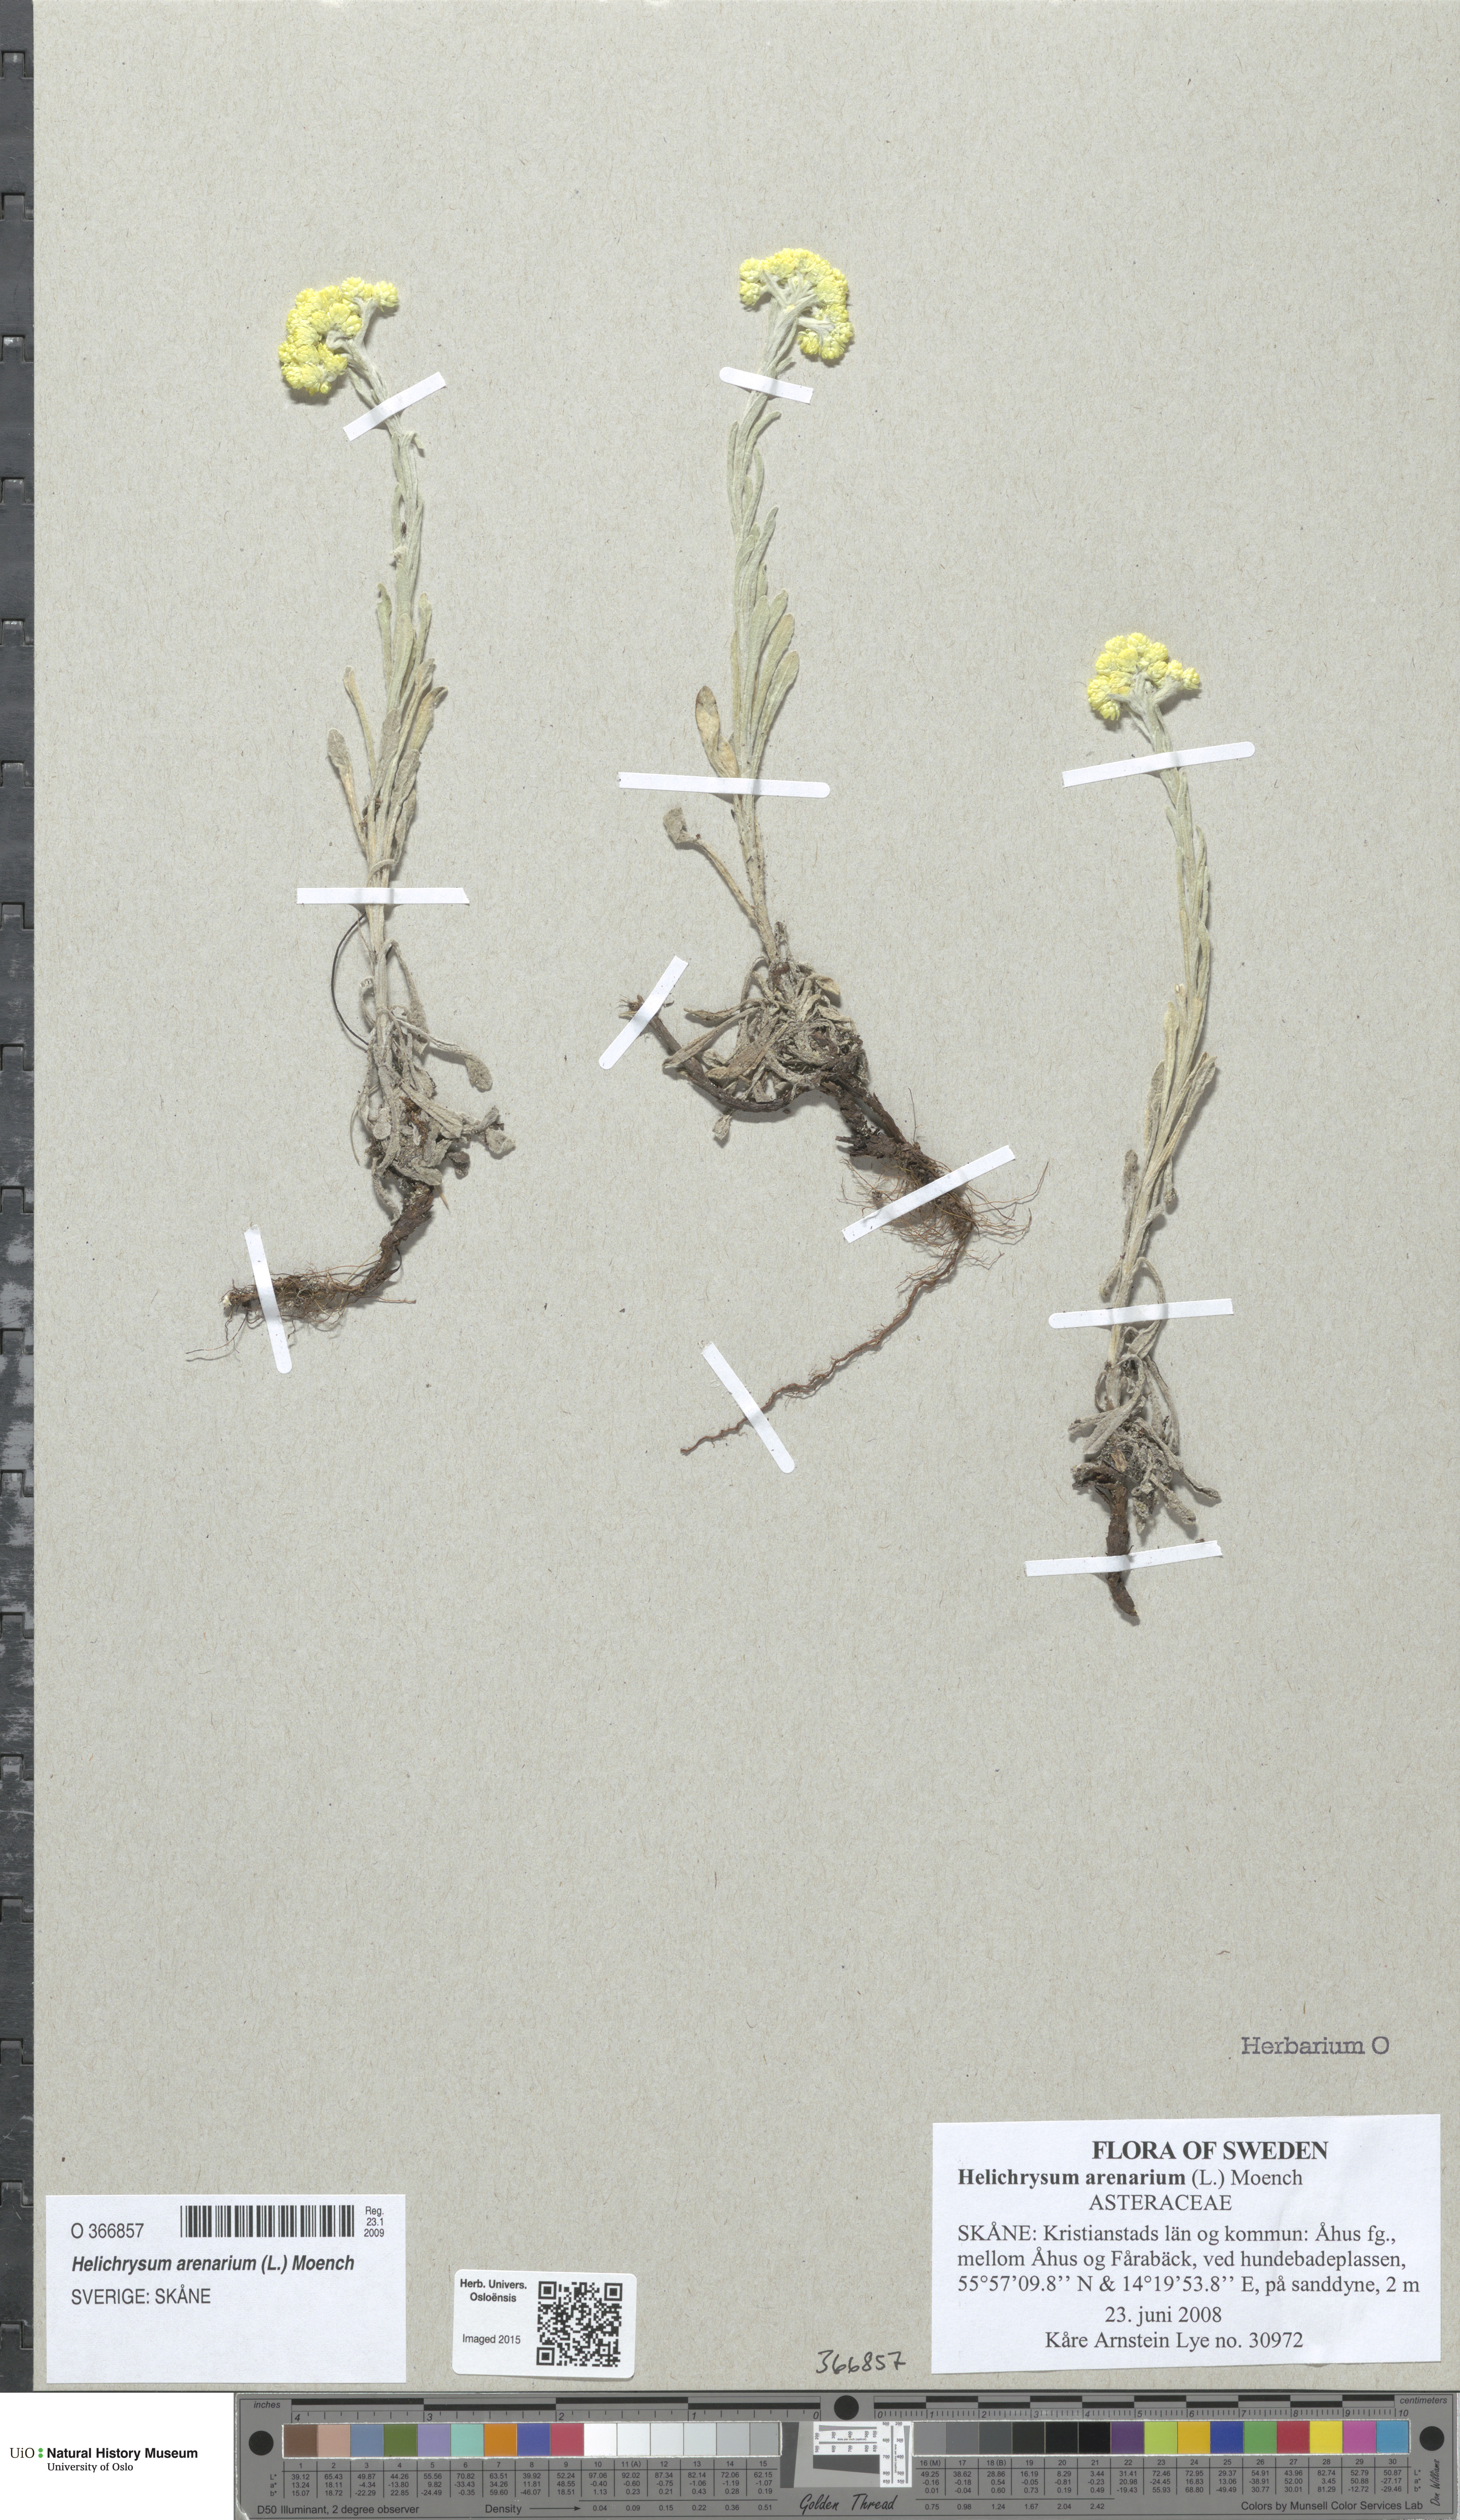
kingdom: Plantae
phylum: Tracheophyta
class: Magnoliopsida
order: Asterales
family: Asteraceae
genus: Helichrysum
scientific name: Helichrysum arenarium
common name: Strawflower
